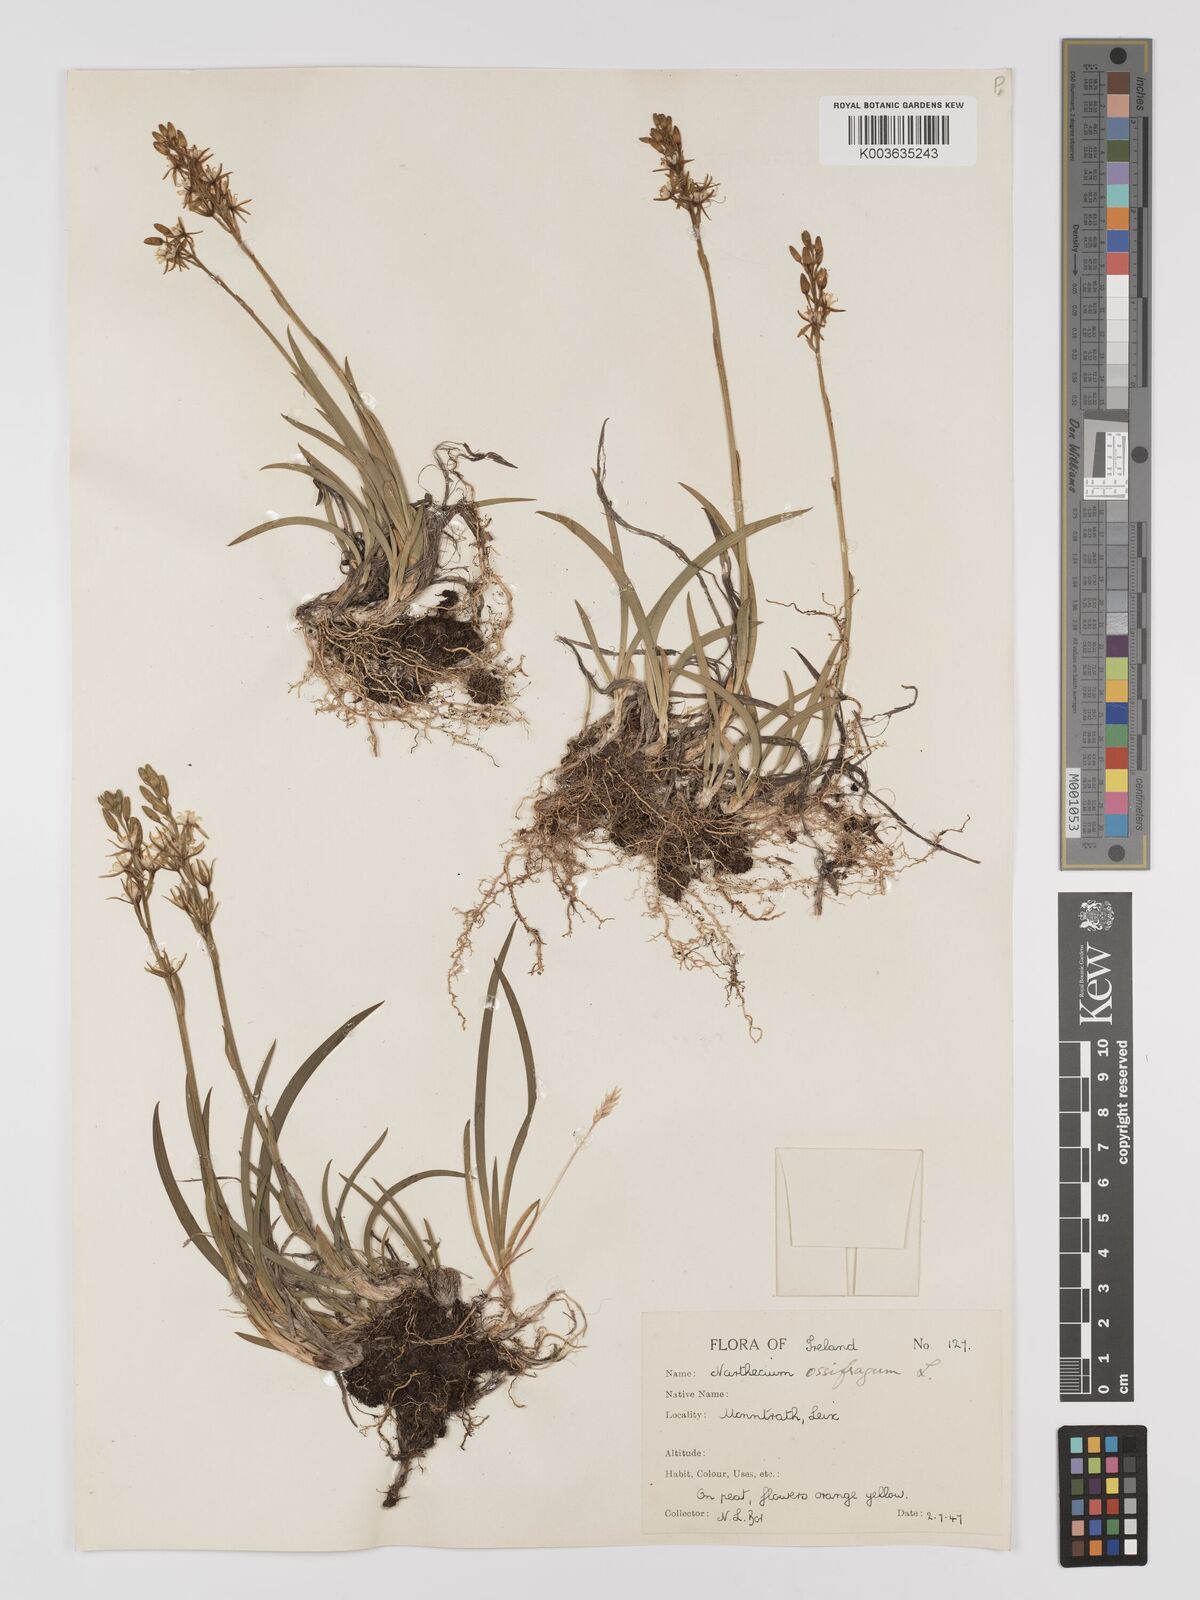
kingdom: Plantae
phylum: Tracheophyta
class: Liliopsida
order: Dioscoreales
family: Nartheciaceae
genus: Narthecium
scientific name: Narthecium ossifragum
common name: Bog asphodel
